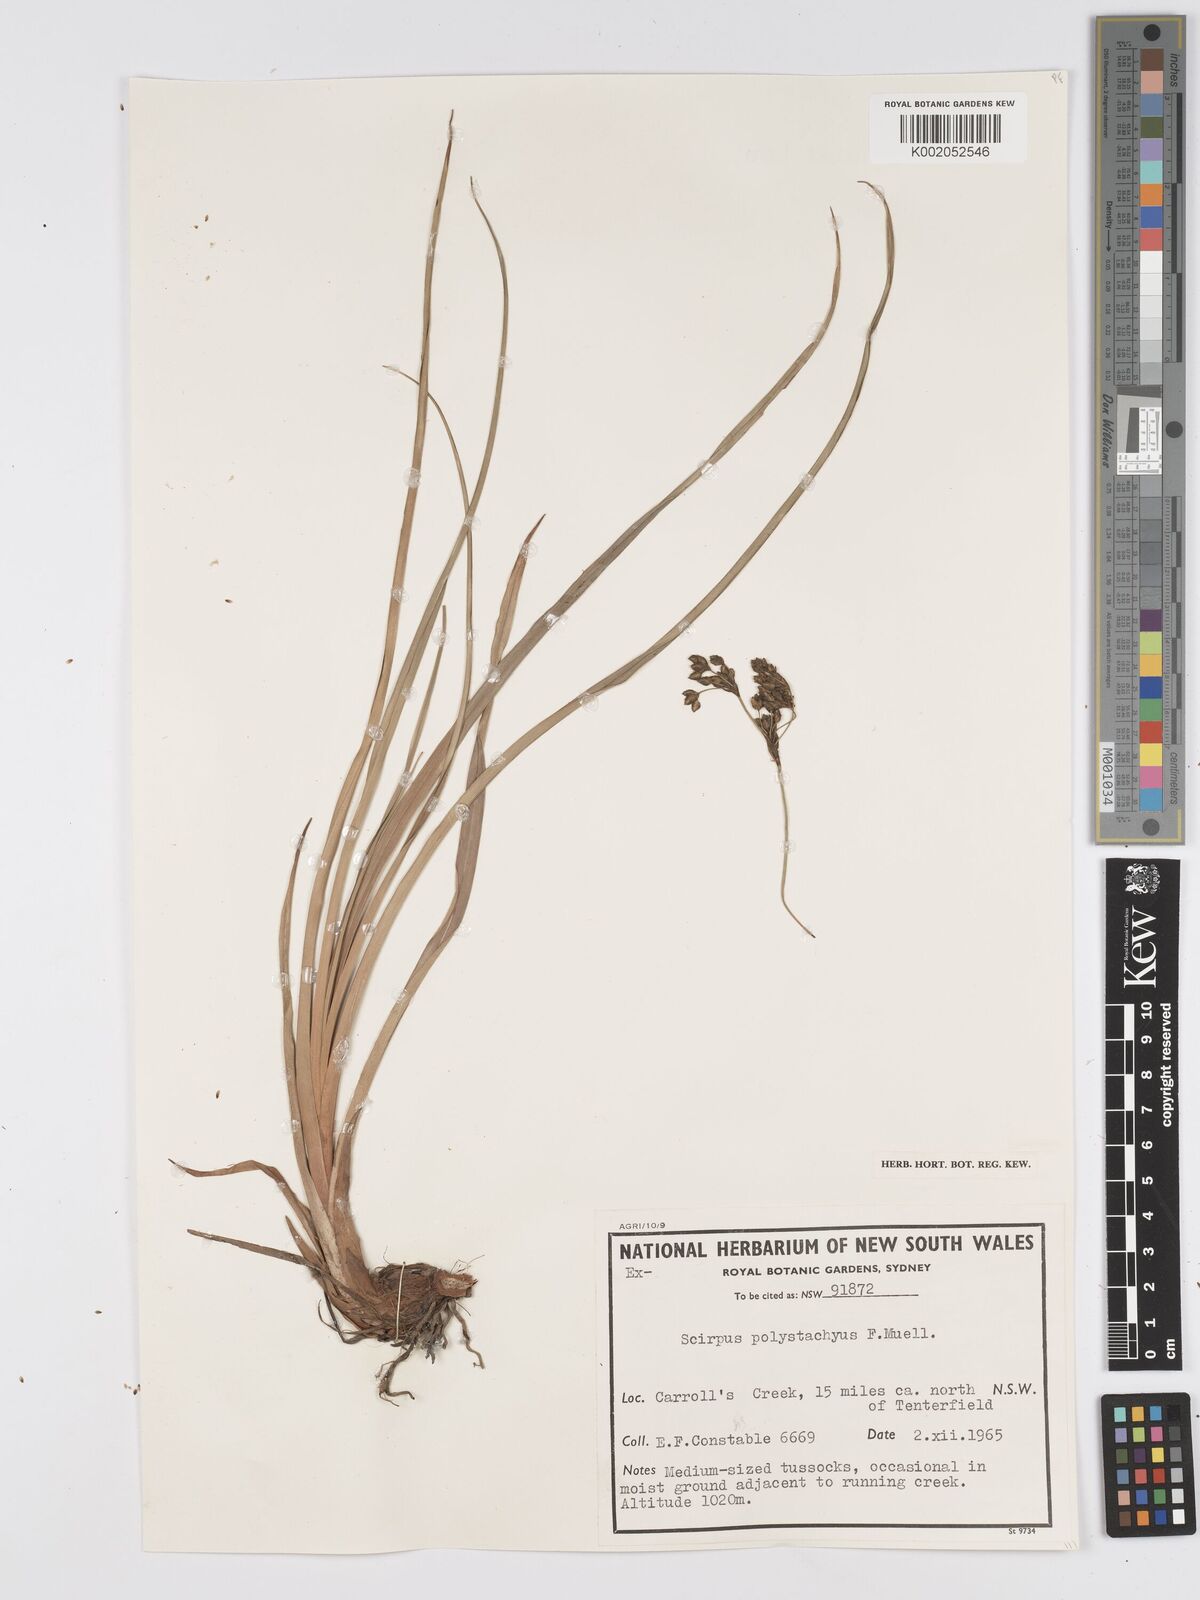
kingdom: Plantae
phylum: Tracheophyta
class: Liliopsida
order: Poales
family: Cyperaceae
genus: Scirpus
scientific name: Scirpus polystachyus
